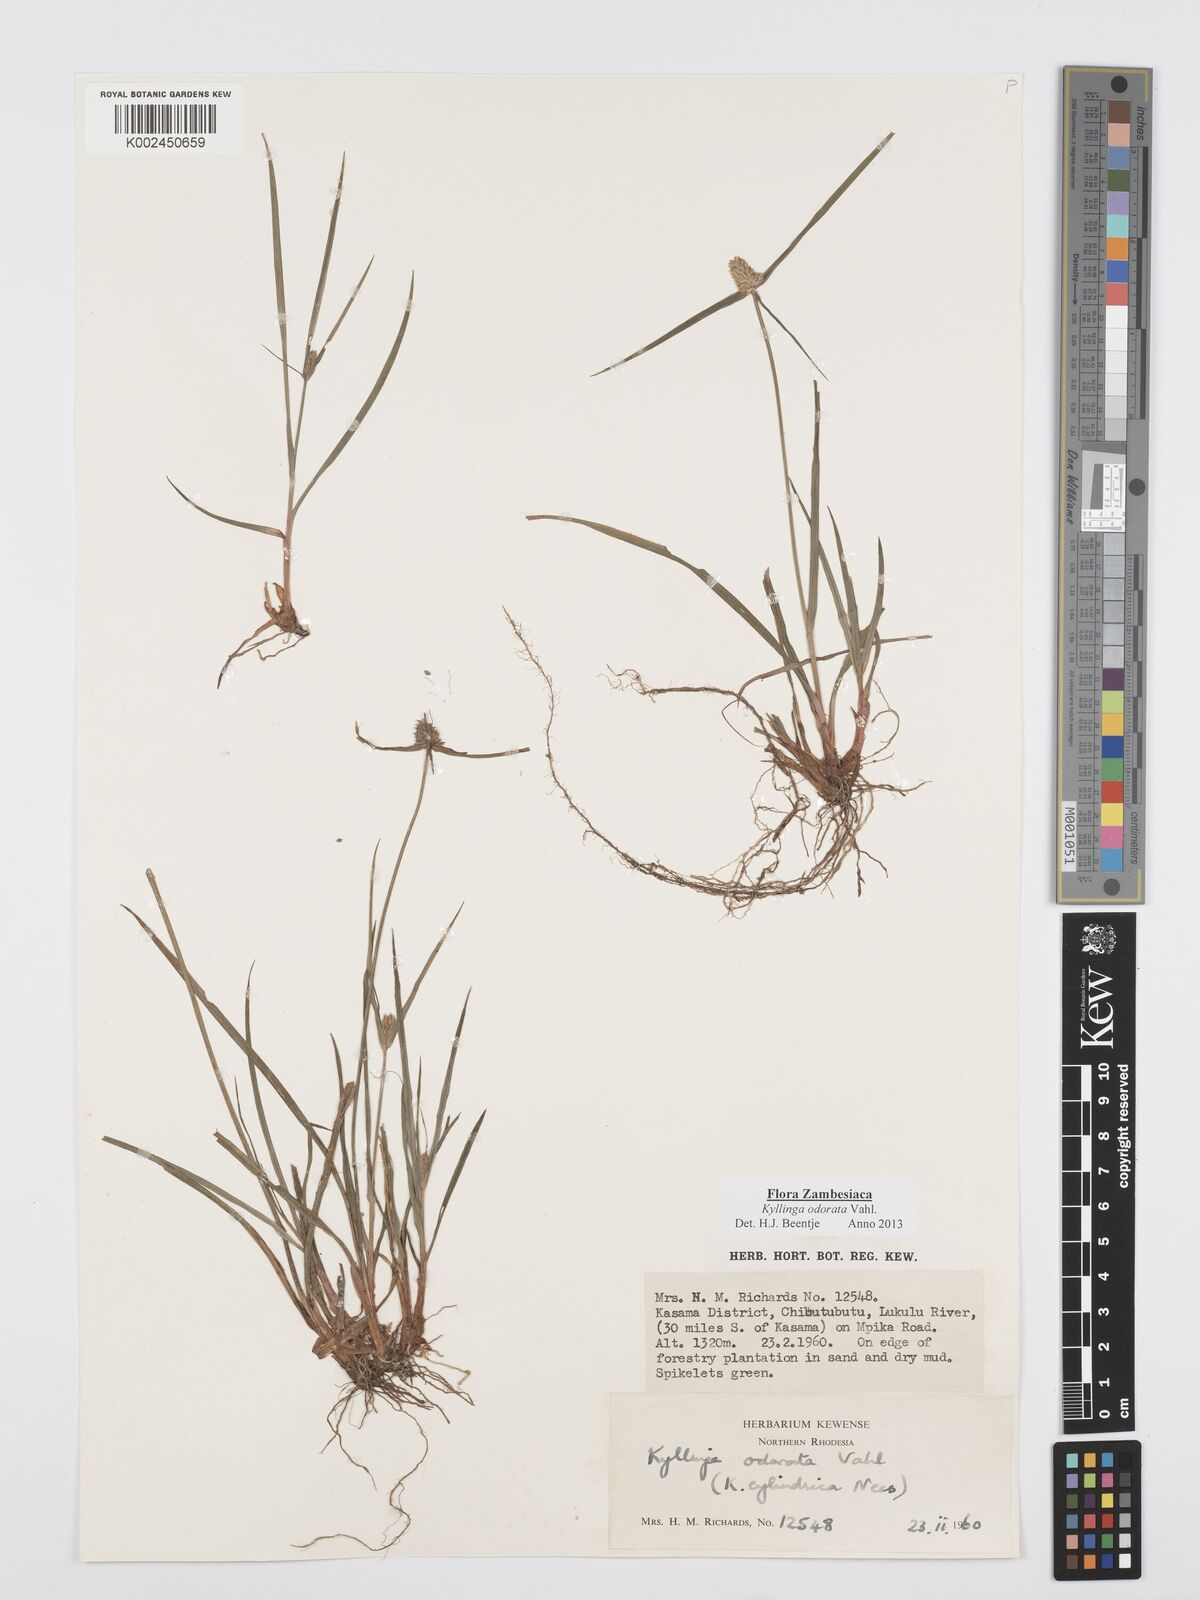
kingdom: Plantae
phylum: Tracheophyta
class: Liliopsida
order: Poales
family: Cyperaceae
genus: Cyperus
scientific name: Cyperus
